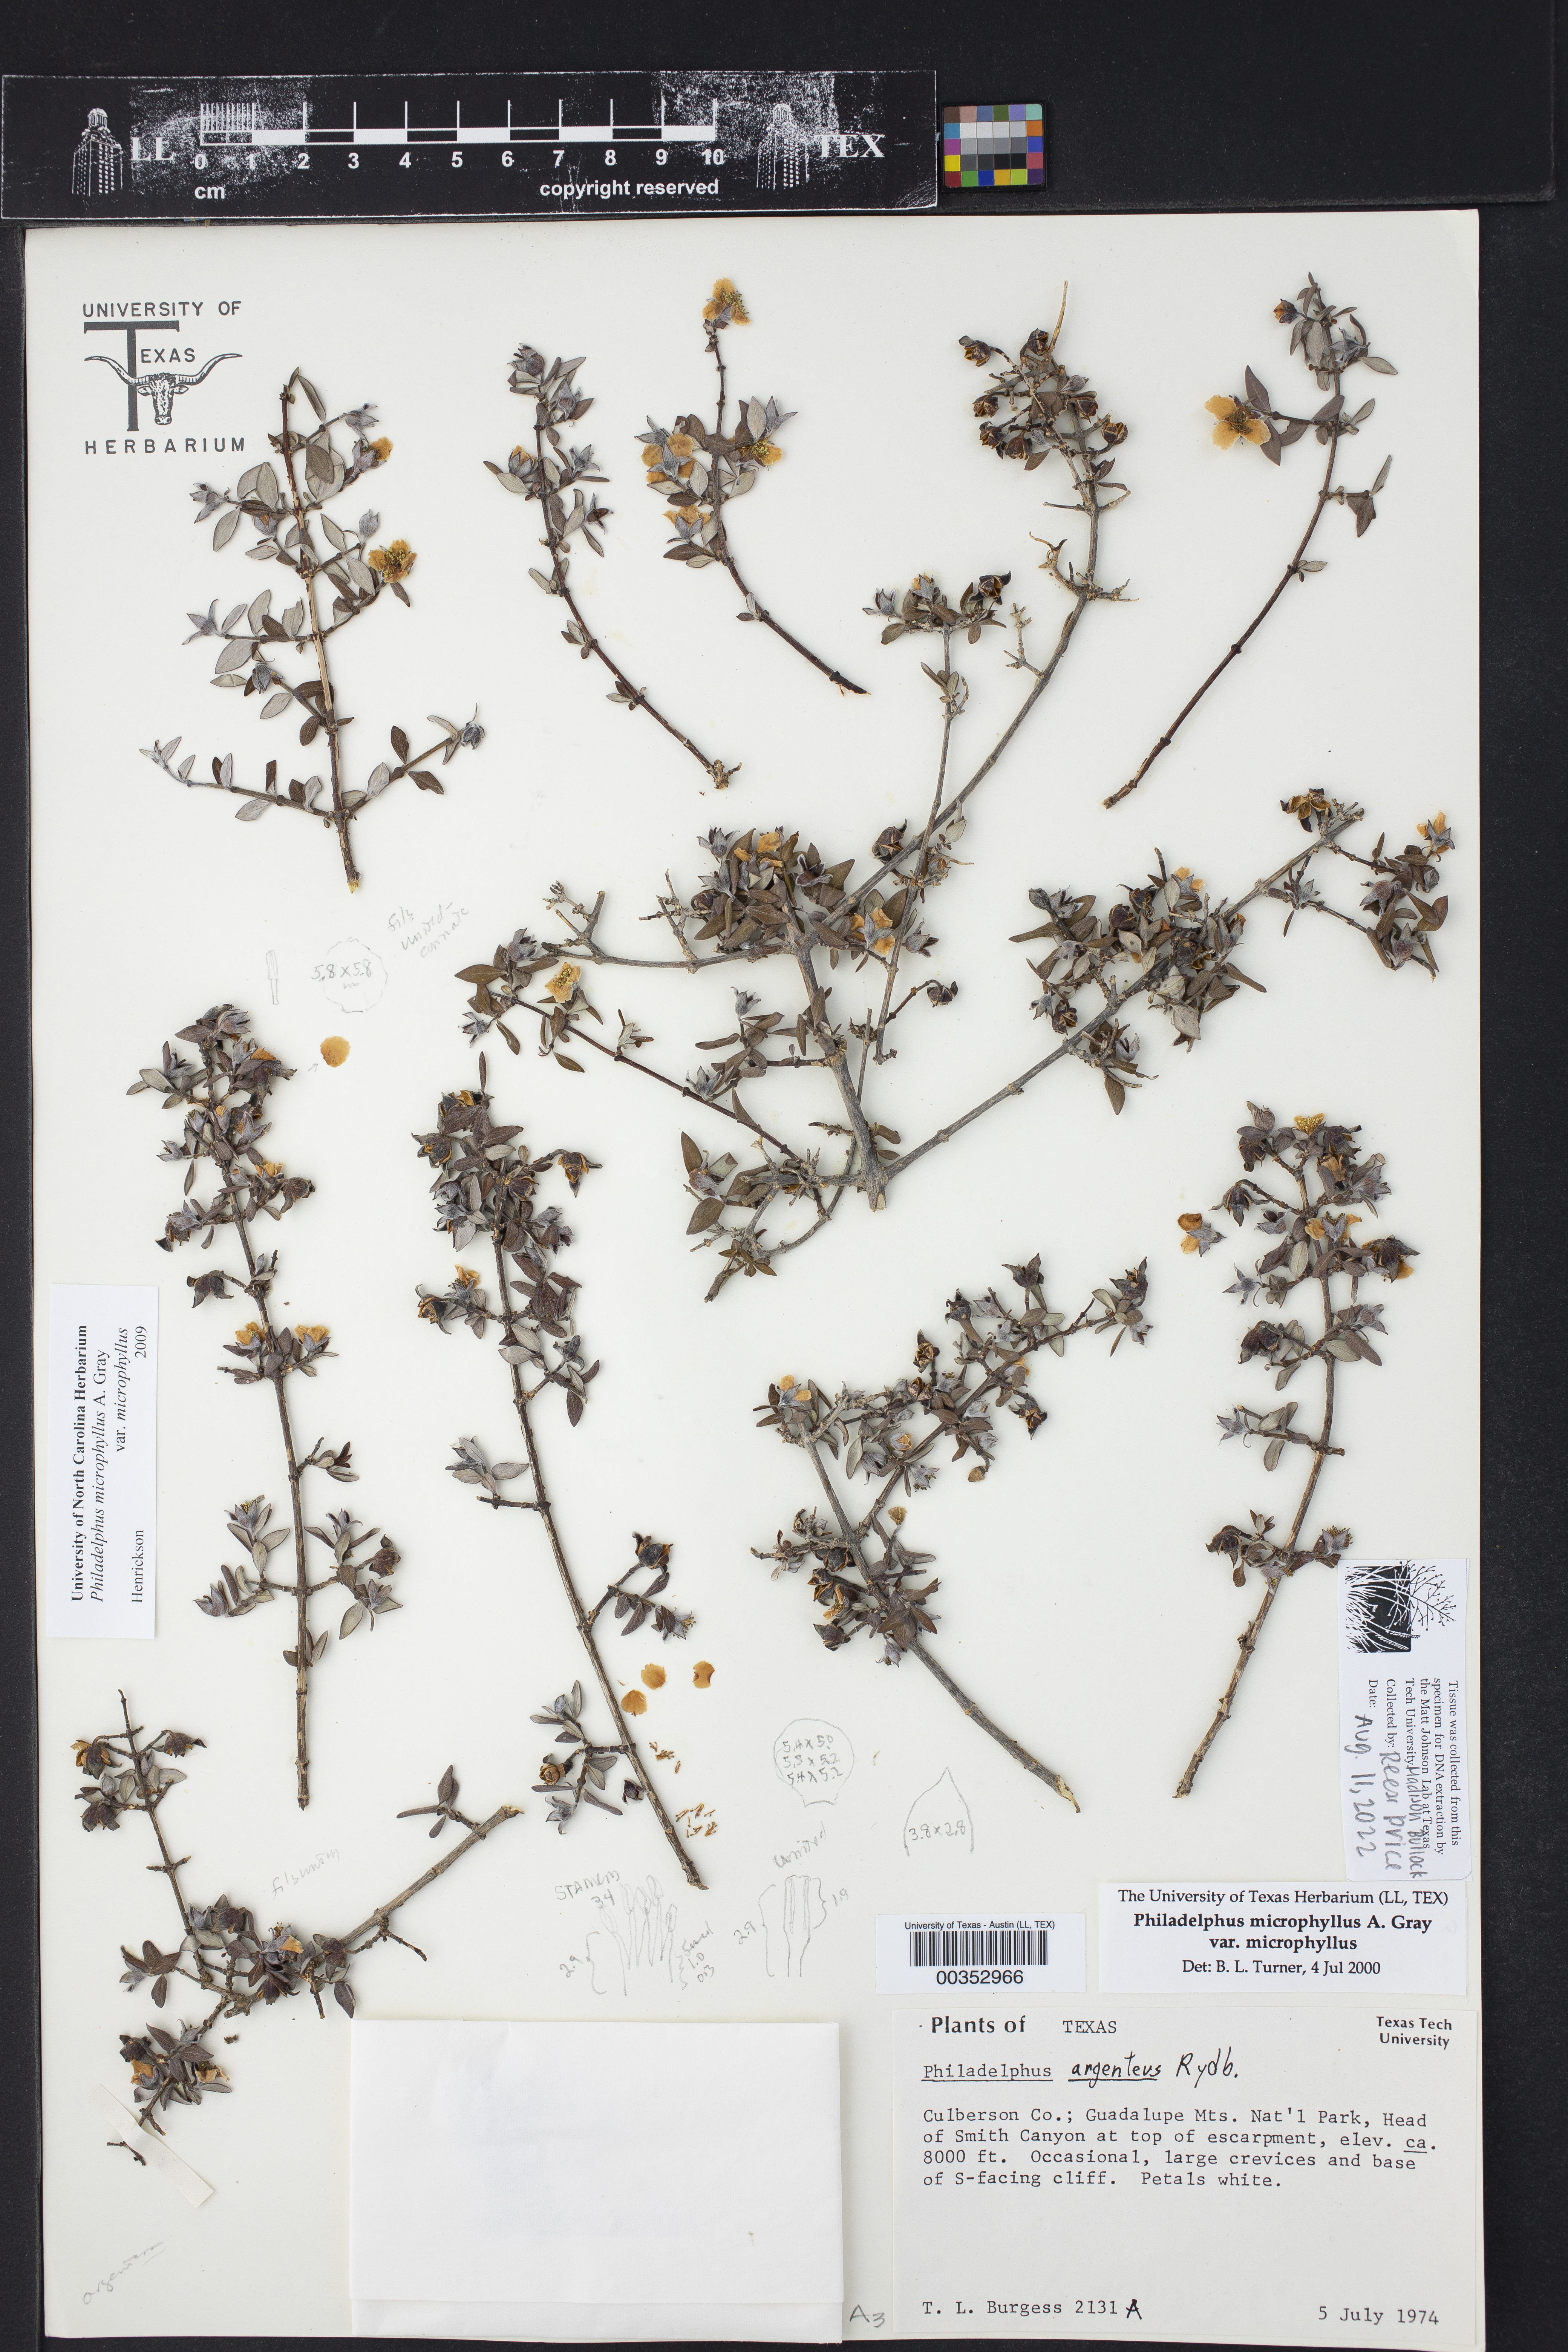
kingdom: Plantae
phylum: Tracheophyta
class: Magnoliopsida
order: Cornales
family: Hydrangeaceae
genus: Philadelphus
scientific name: Philadelphus microphyllus
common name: Desert mock orange
